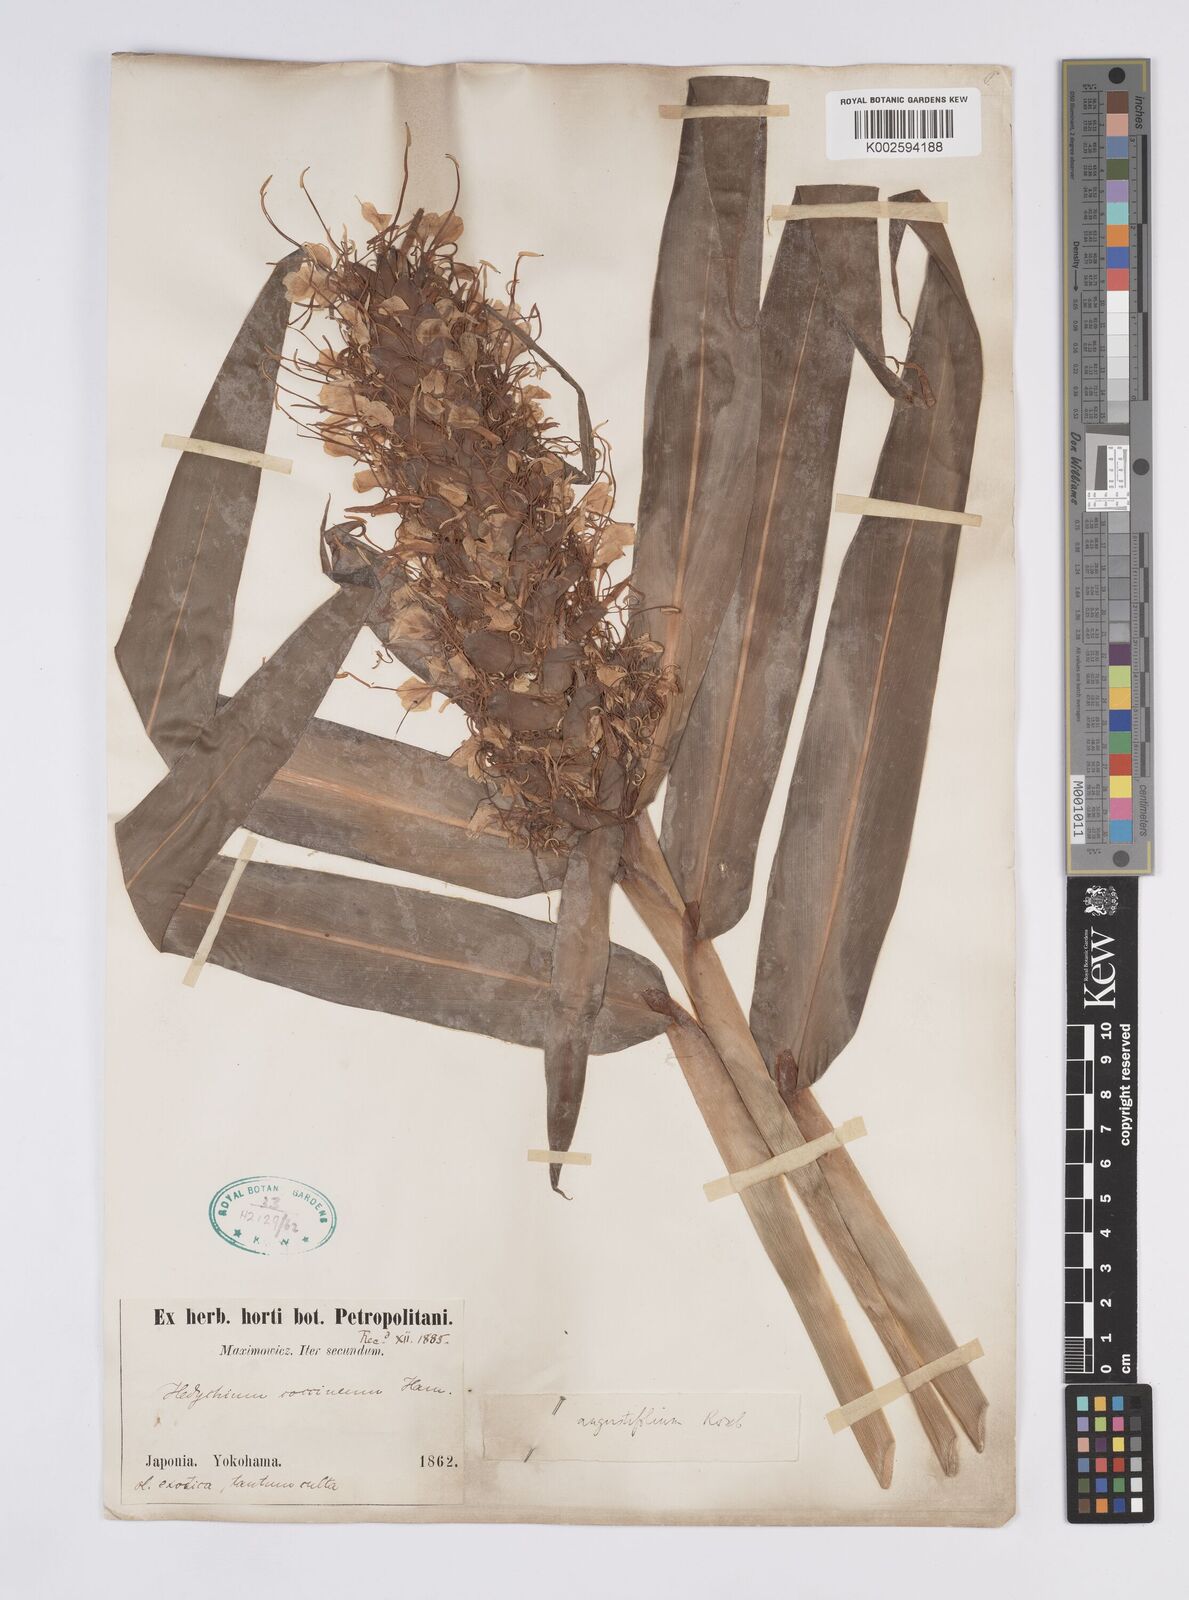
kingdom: Plantae
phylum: Tracheophyta
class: Liliopsida
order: Zingiberales
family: Zingiberaceae
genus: Hedychium
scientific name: Hedychium coccineum
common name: Red ginger-lily
